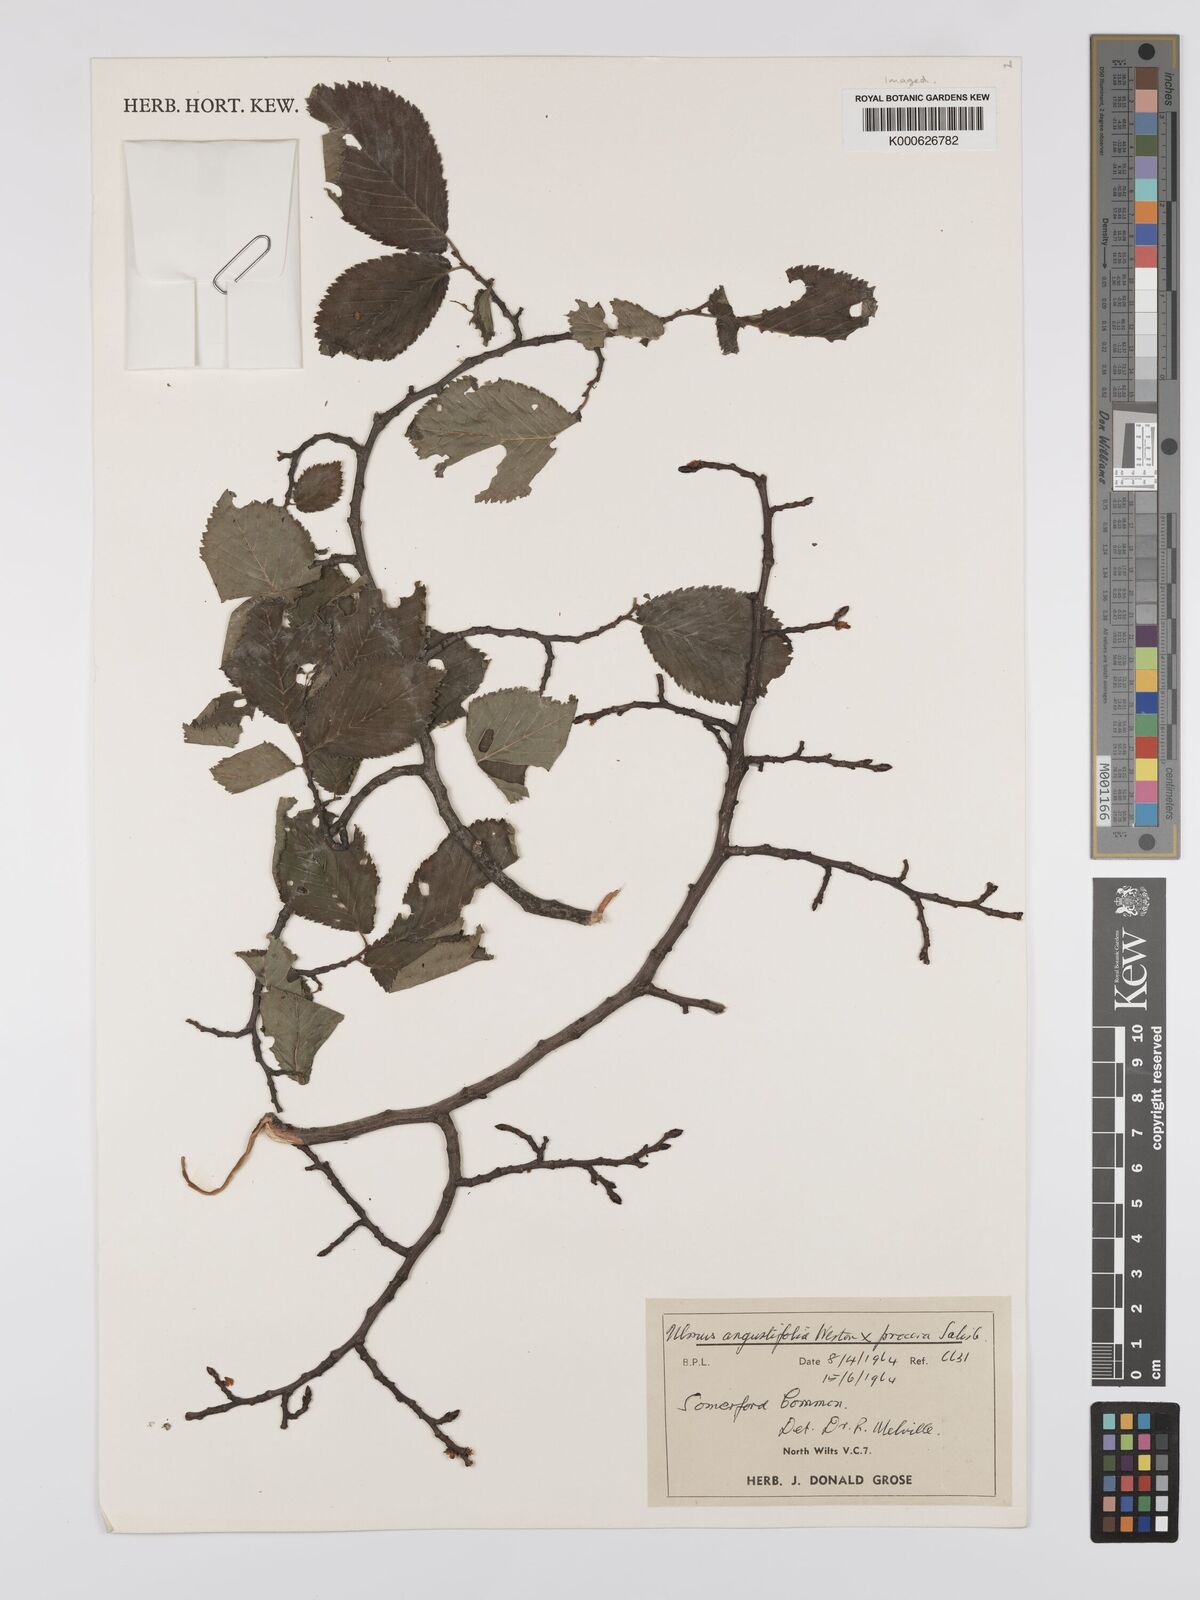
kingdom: Plantae
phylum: Tracheophyta
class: Magnoliopsida
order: Rosales
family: Ulmaceae
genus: Ulmus
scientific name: Ulmus
